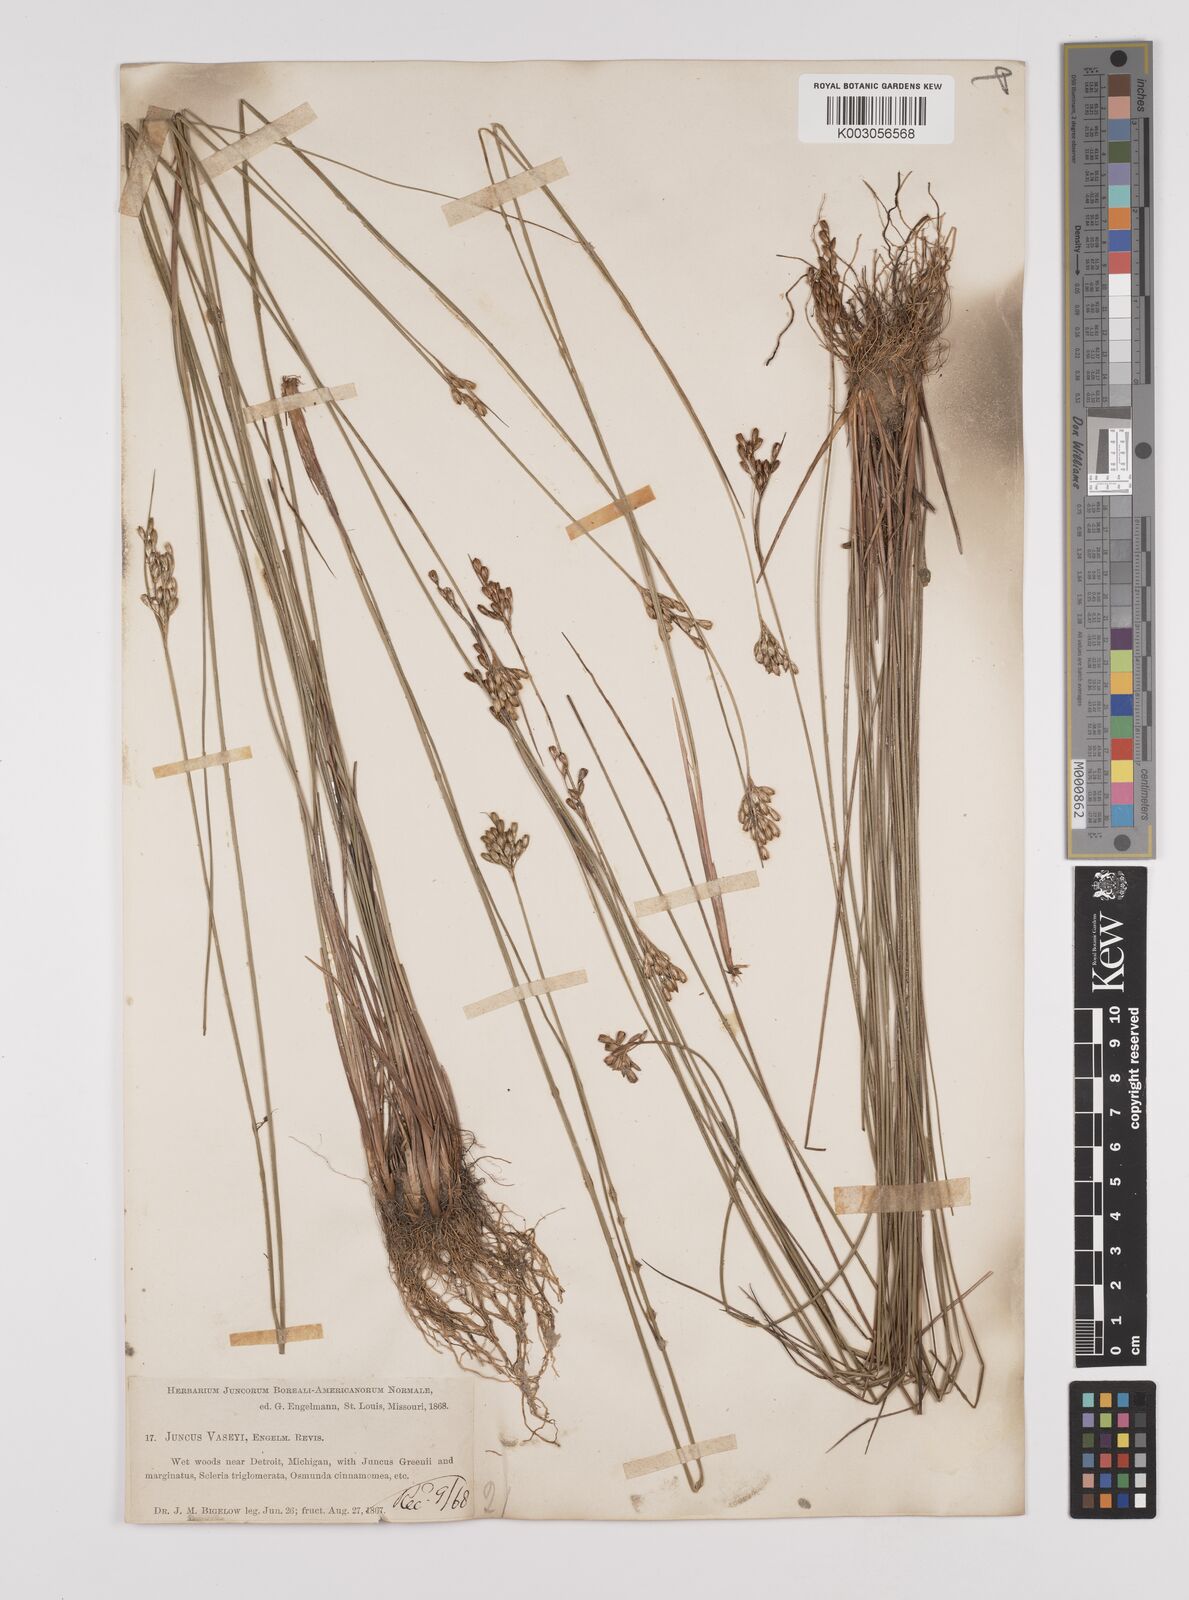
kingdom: Plantae
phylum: Tracheophyta
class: Liliopsida
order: Poales
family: Juncaceae
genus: Juncus
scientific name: Juncus vaseyi
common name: Big-headed rush
